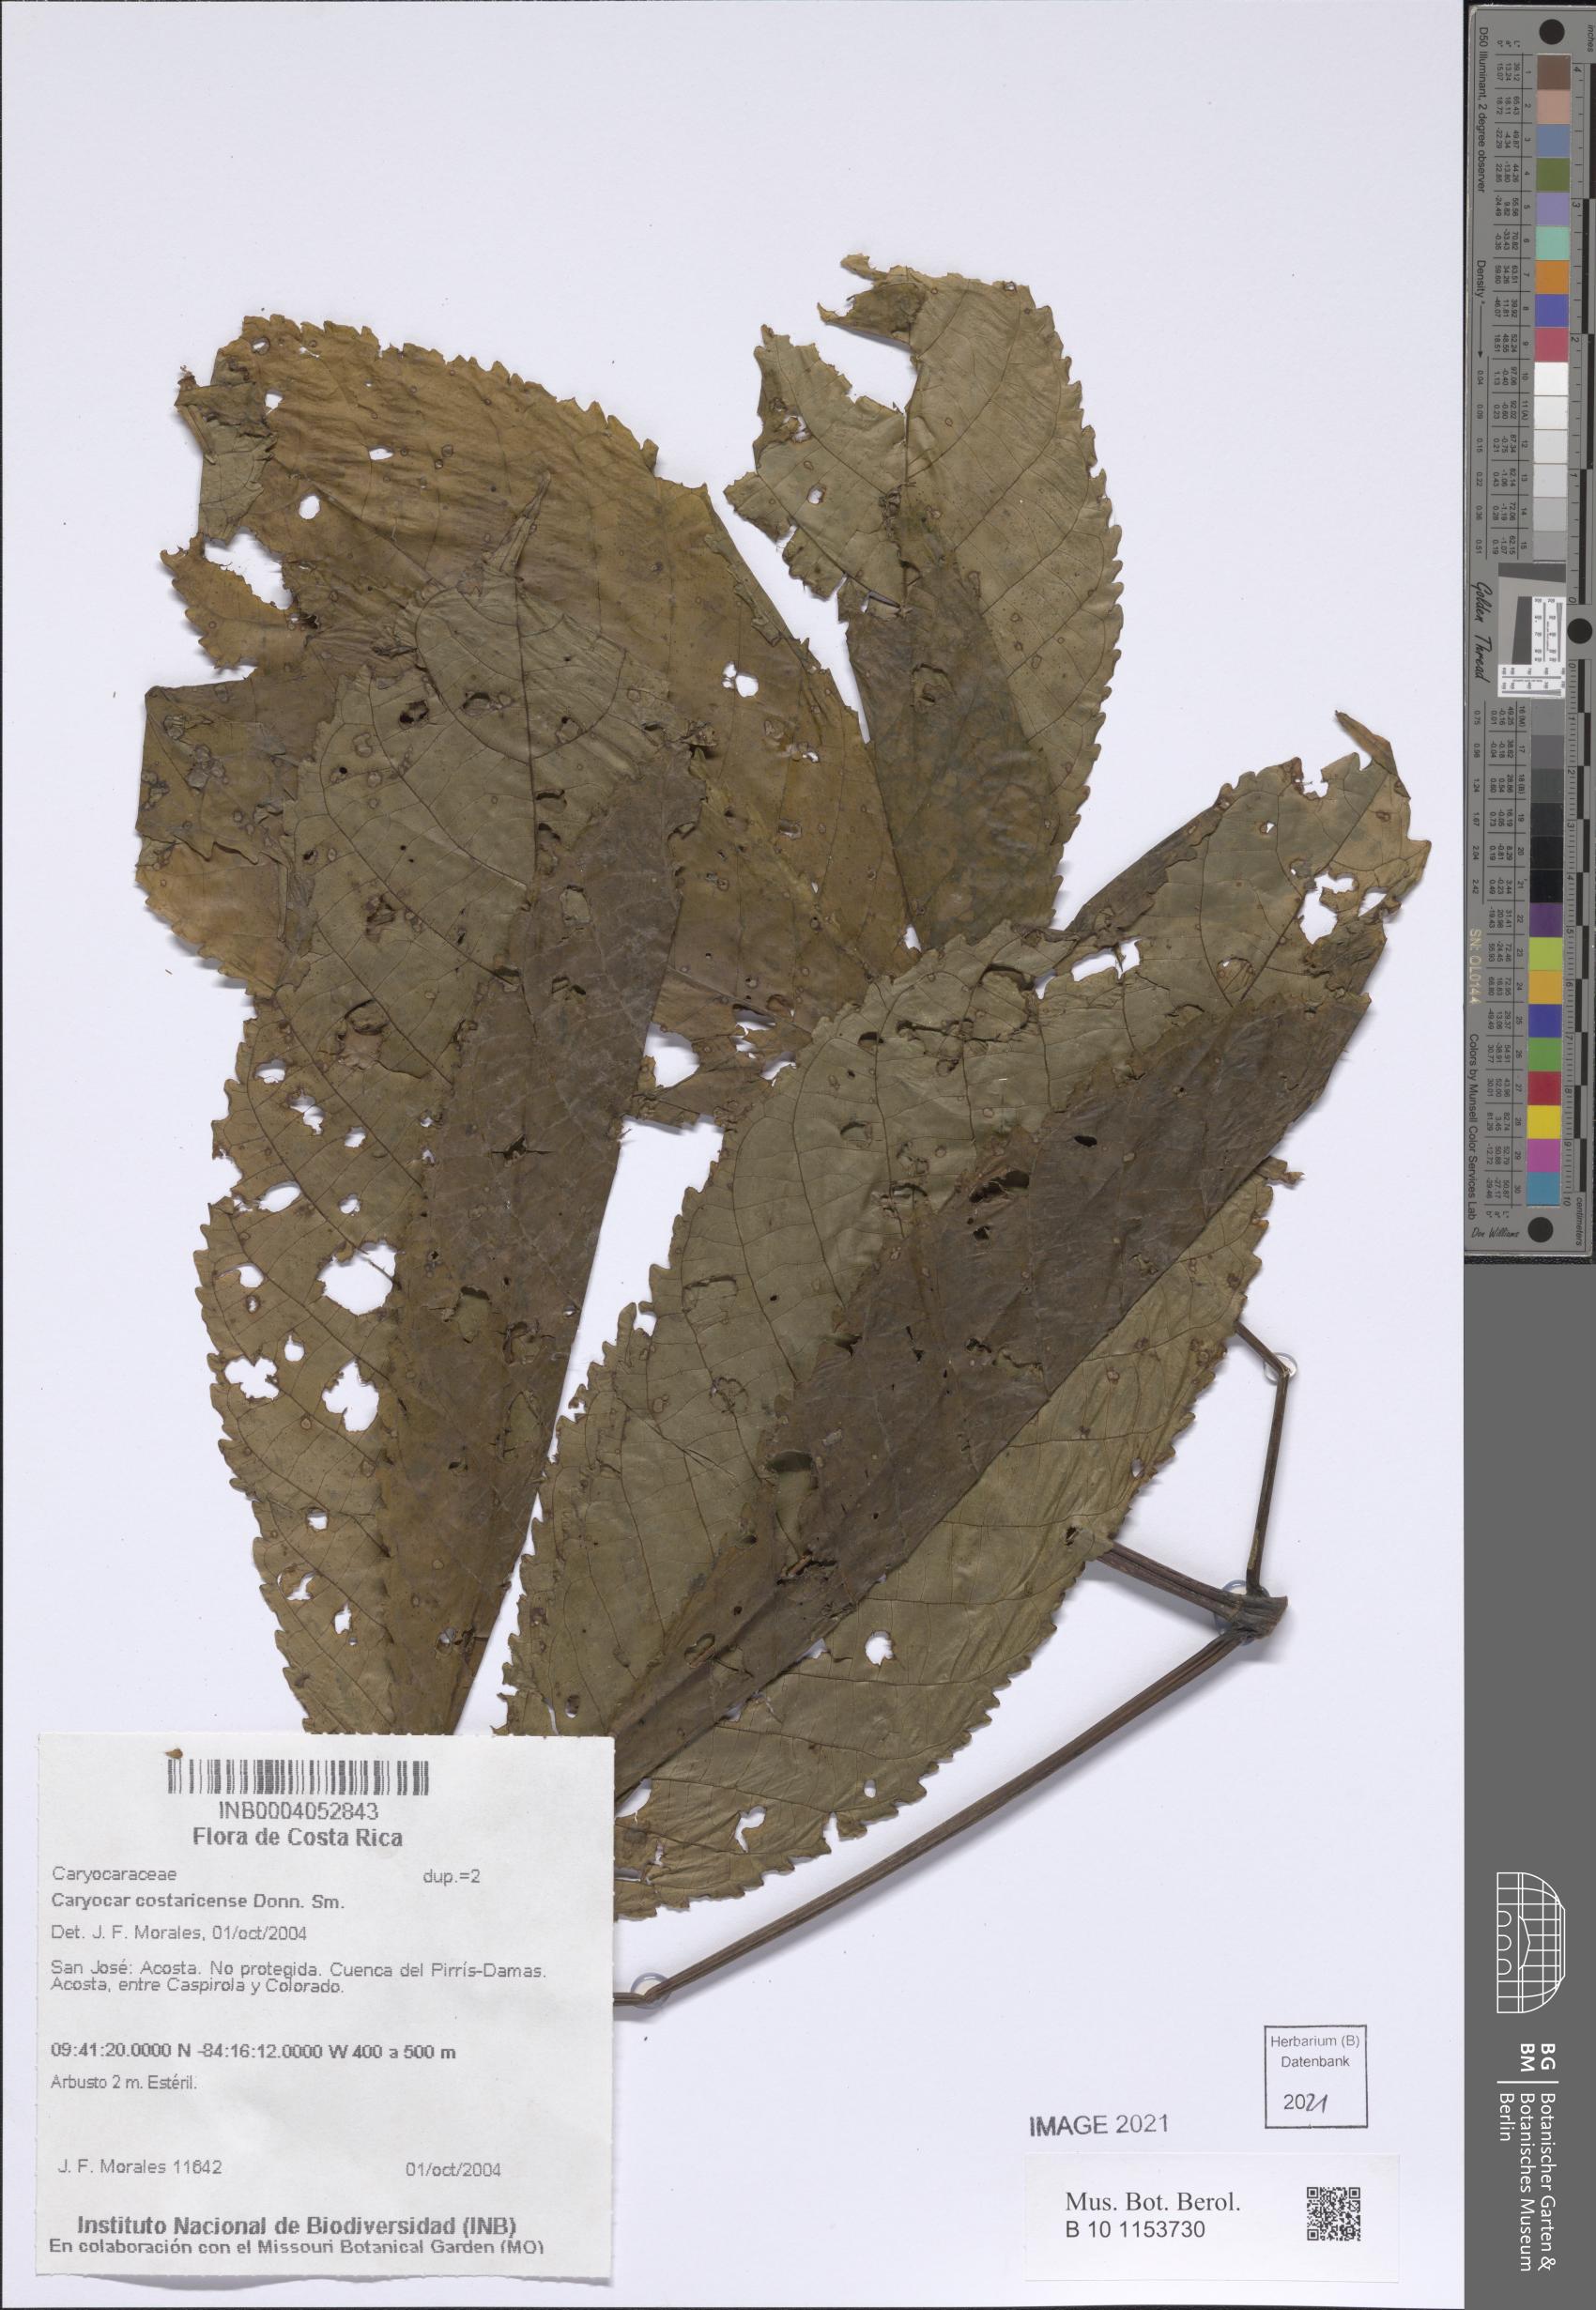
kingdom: Plantae
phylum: Tracheophyta
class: Magnoliopsida
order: Malpighiales
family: Caryocaraceae
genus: Caryocar
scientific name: Caryocar costaricense
